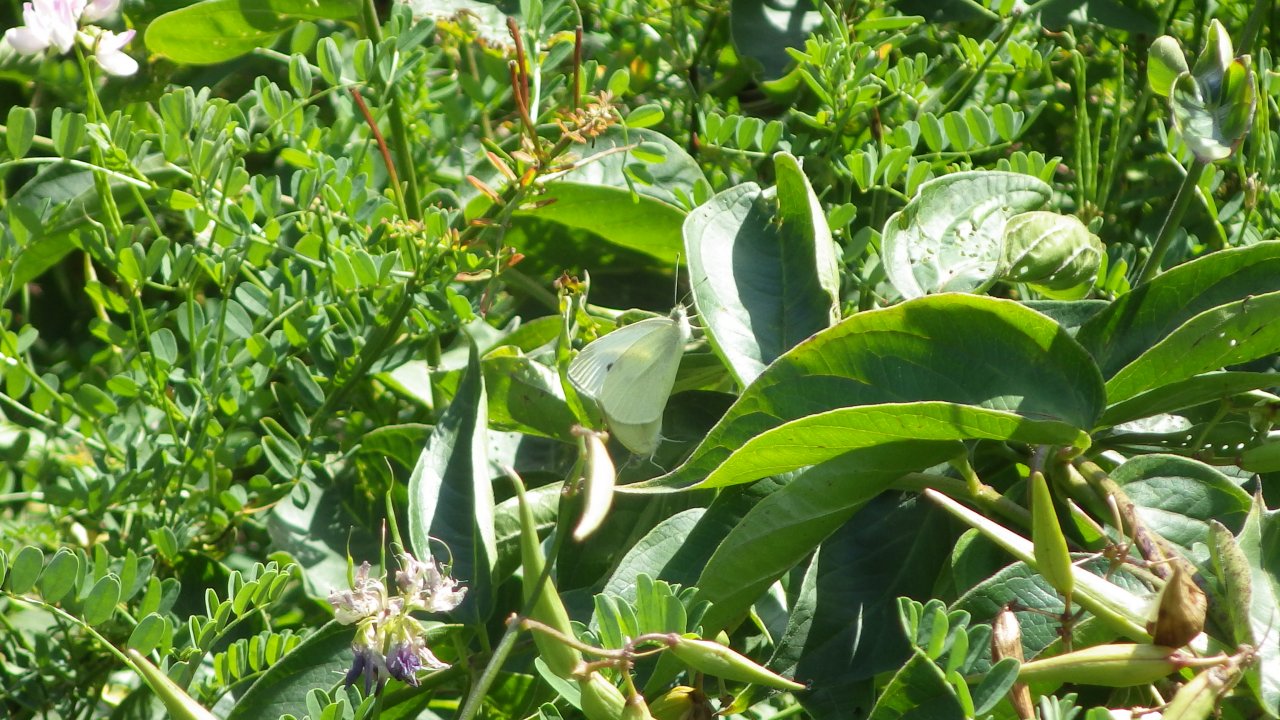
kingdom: Animalia
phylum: Arthropoda
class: Insecta
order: Lepidoptera
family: Pieridae
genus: Pieris
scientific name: Pieris rapae
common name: Cabbage White
